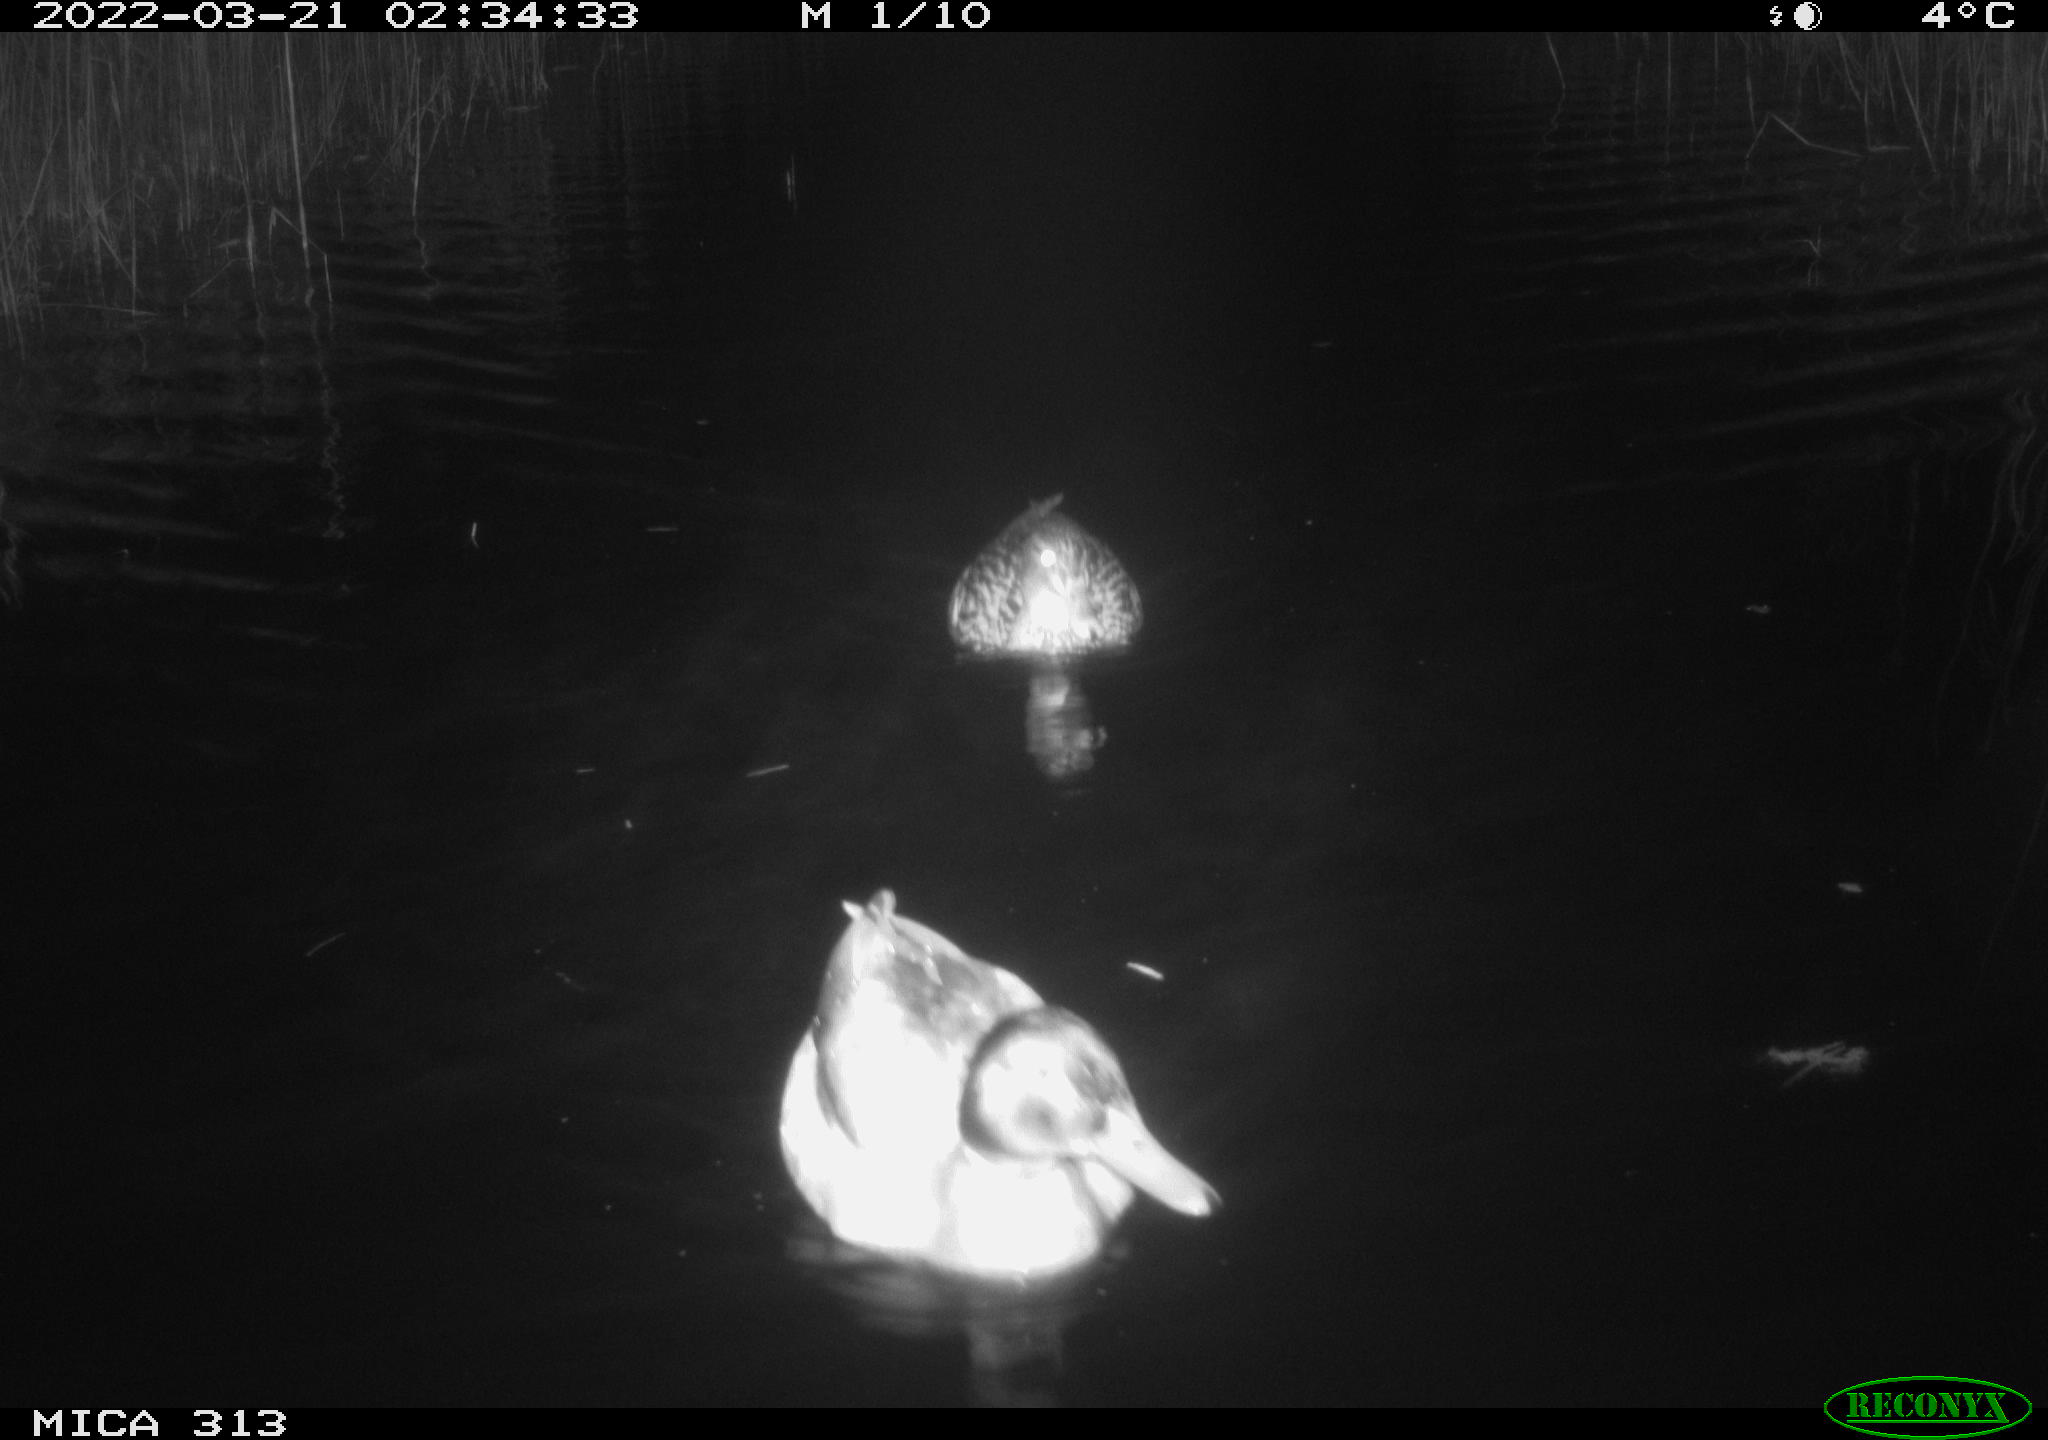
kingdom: Animalia
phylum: Chordata
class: Aves
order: Anseriformes
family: Anatidae
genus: Anas
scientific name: Anas platyrhynchos
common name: Mallard
